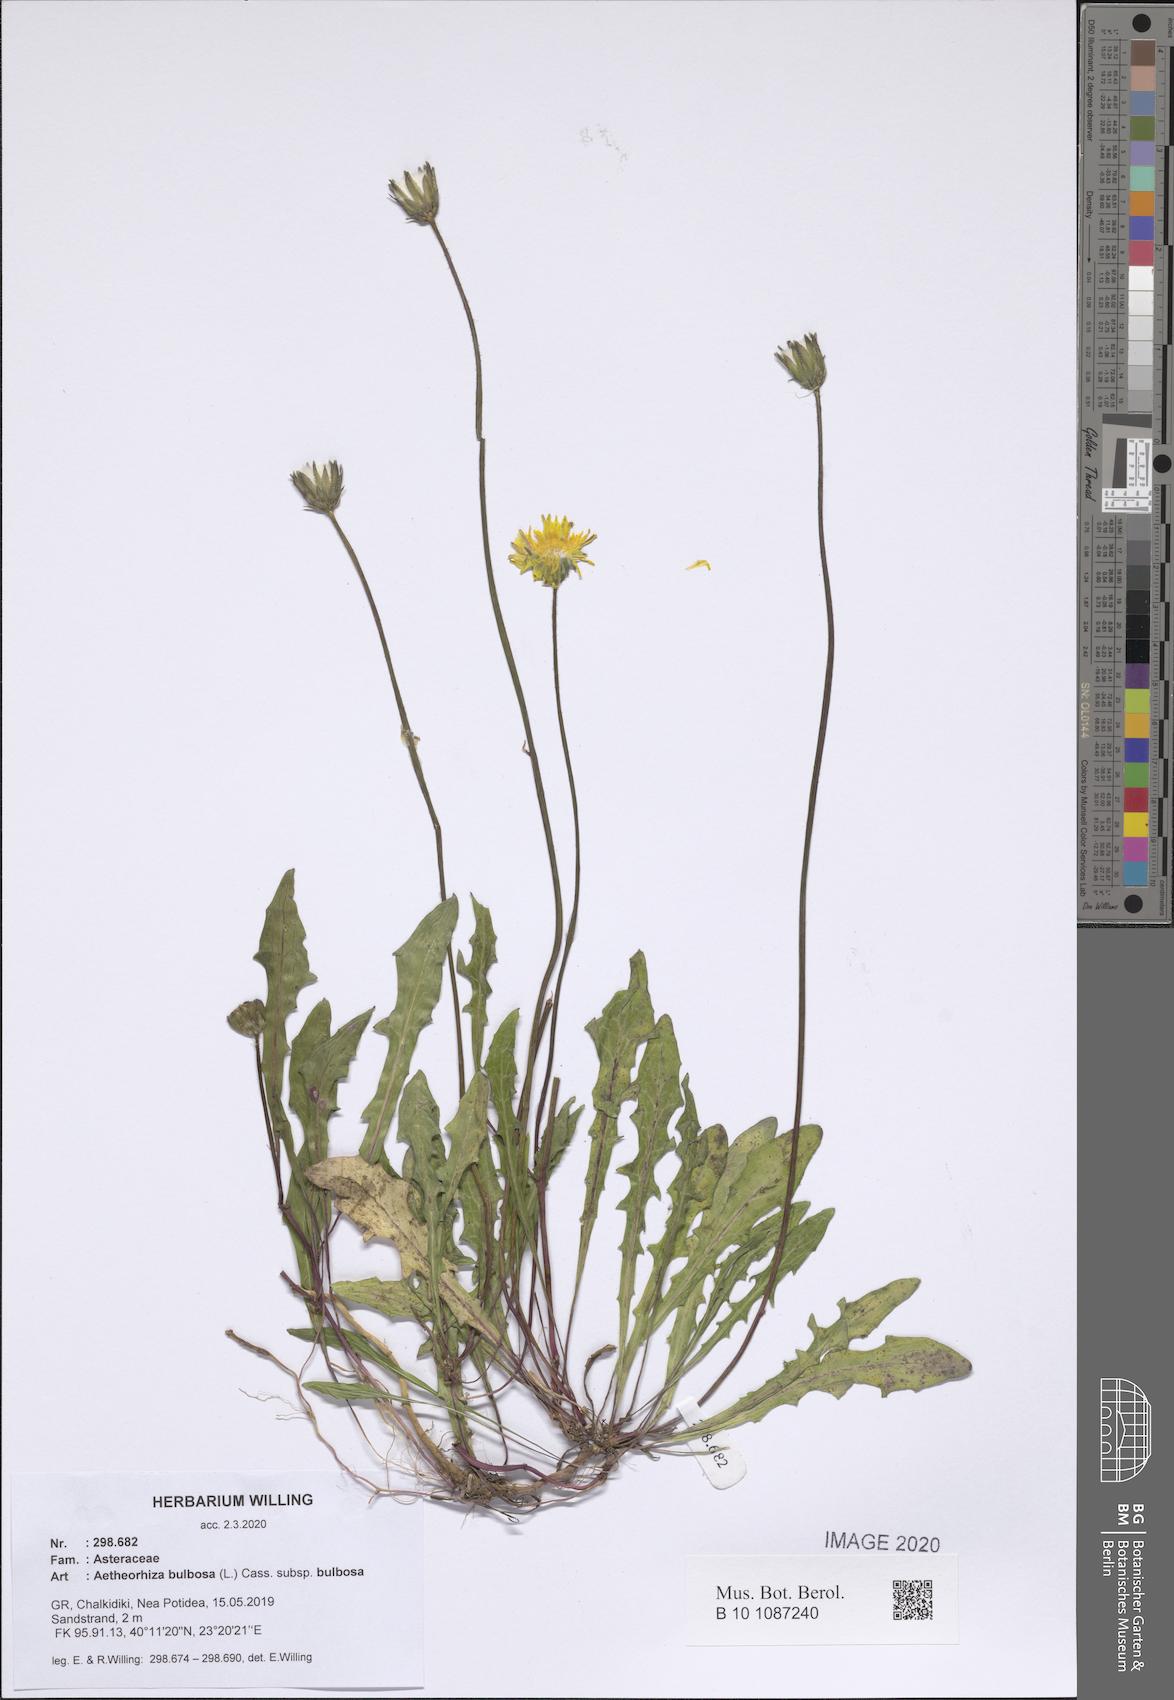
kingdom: Plantae
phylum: Tracheophyta
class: Magnoliopsida
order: Asterales
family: Asteraceae
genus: Aetheorhiza
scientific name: Aetheorhiza bulbosa
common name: Tuberous hawk's-beard
